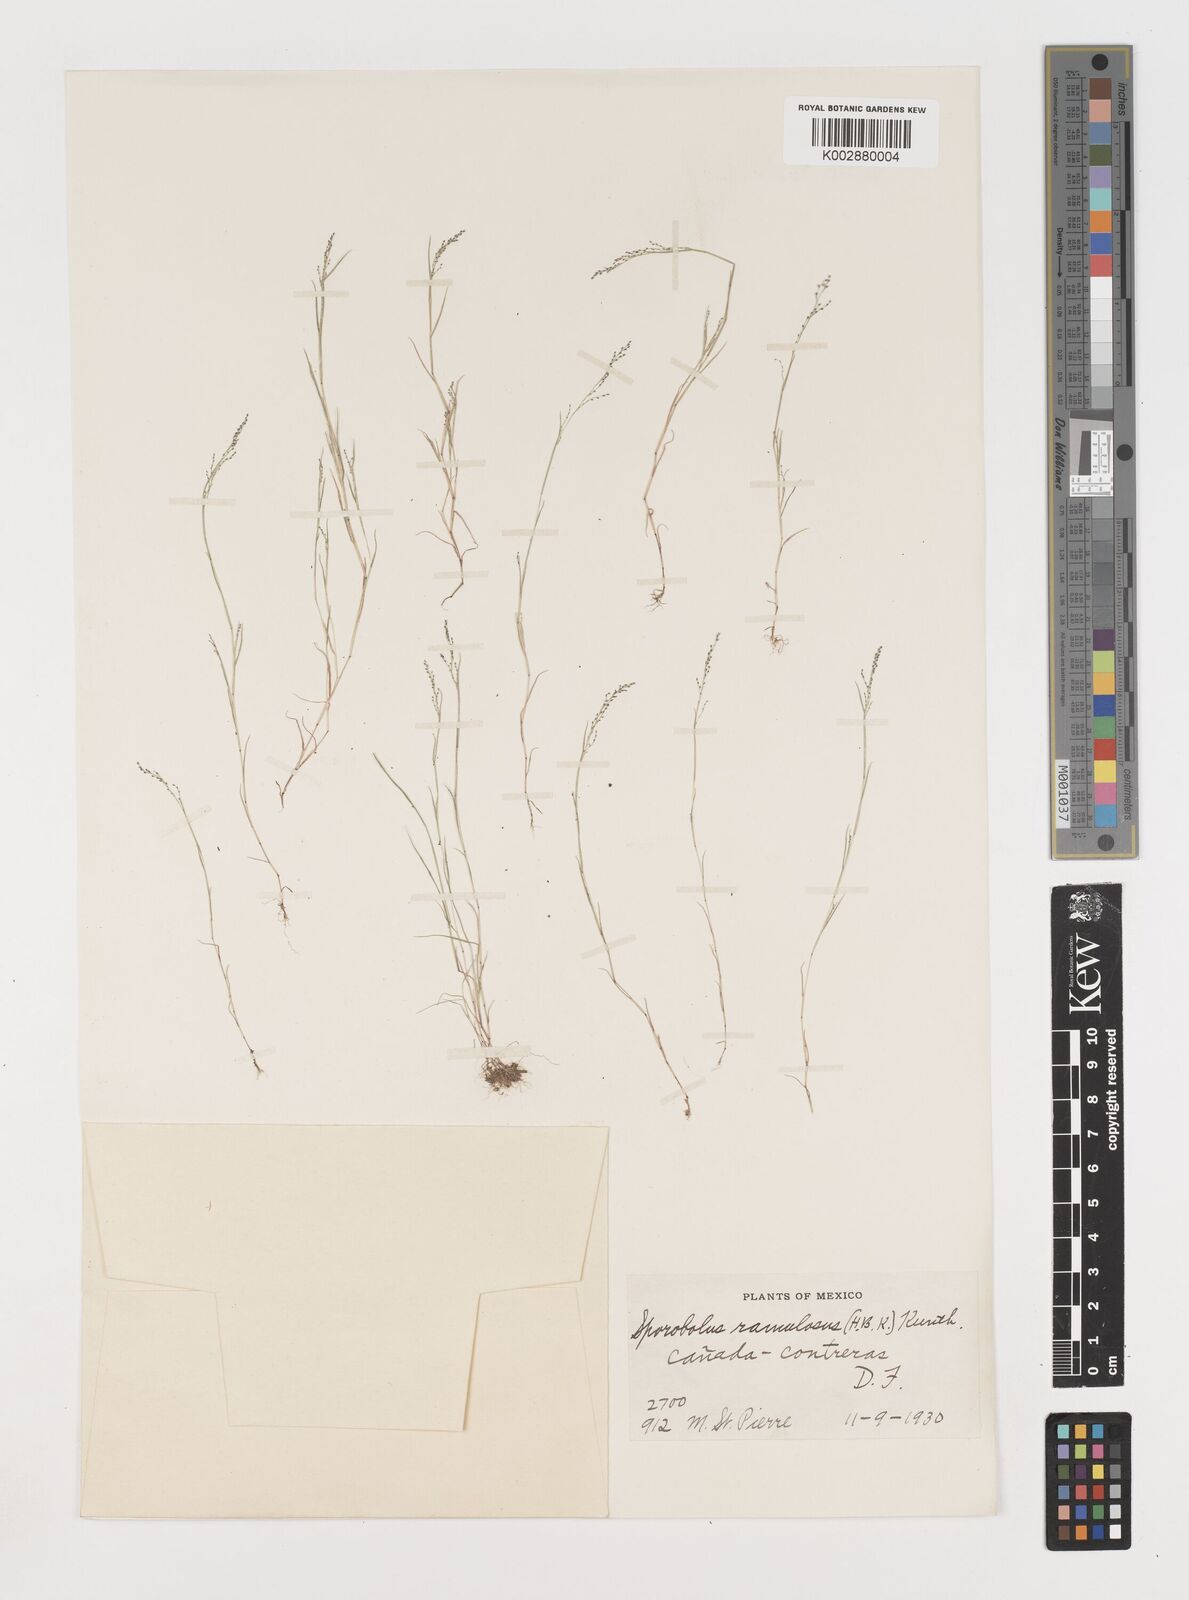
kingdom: Plantae
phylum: Tracheophyta
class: Liliopsida
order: Poales
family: Poaceae
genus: Muhlenbergia
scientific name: Muhlenbergia ramulosa
